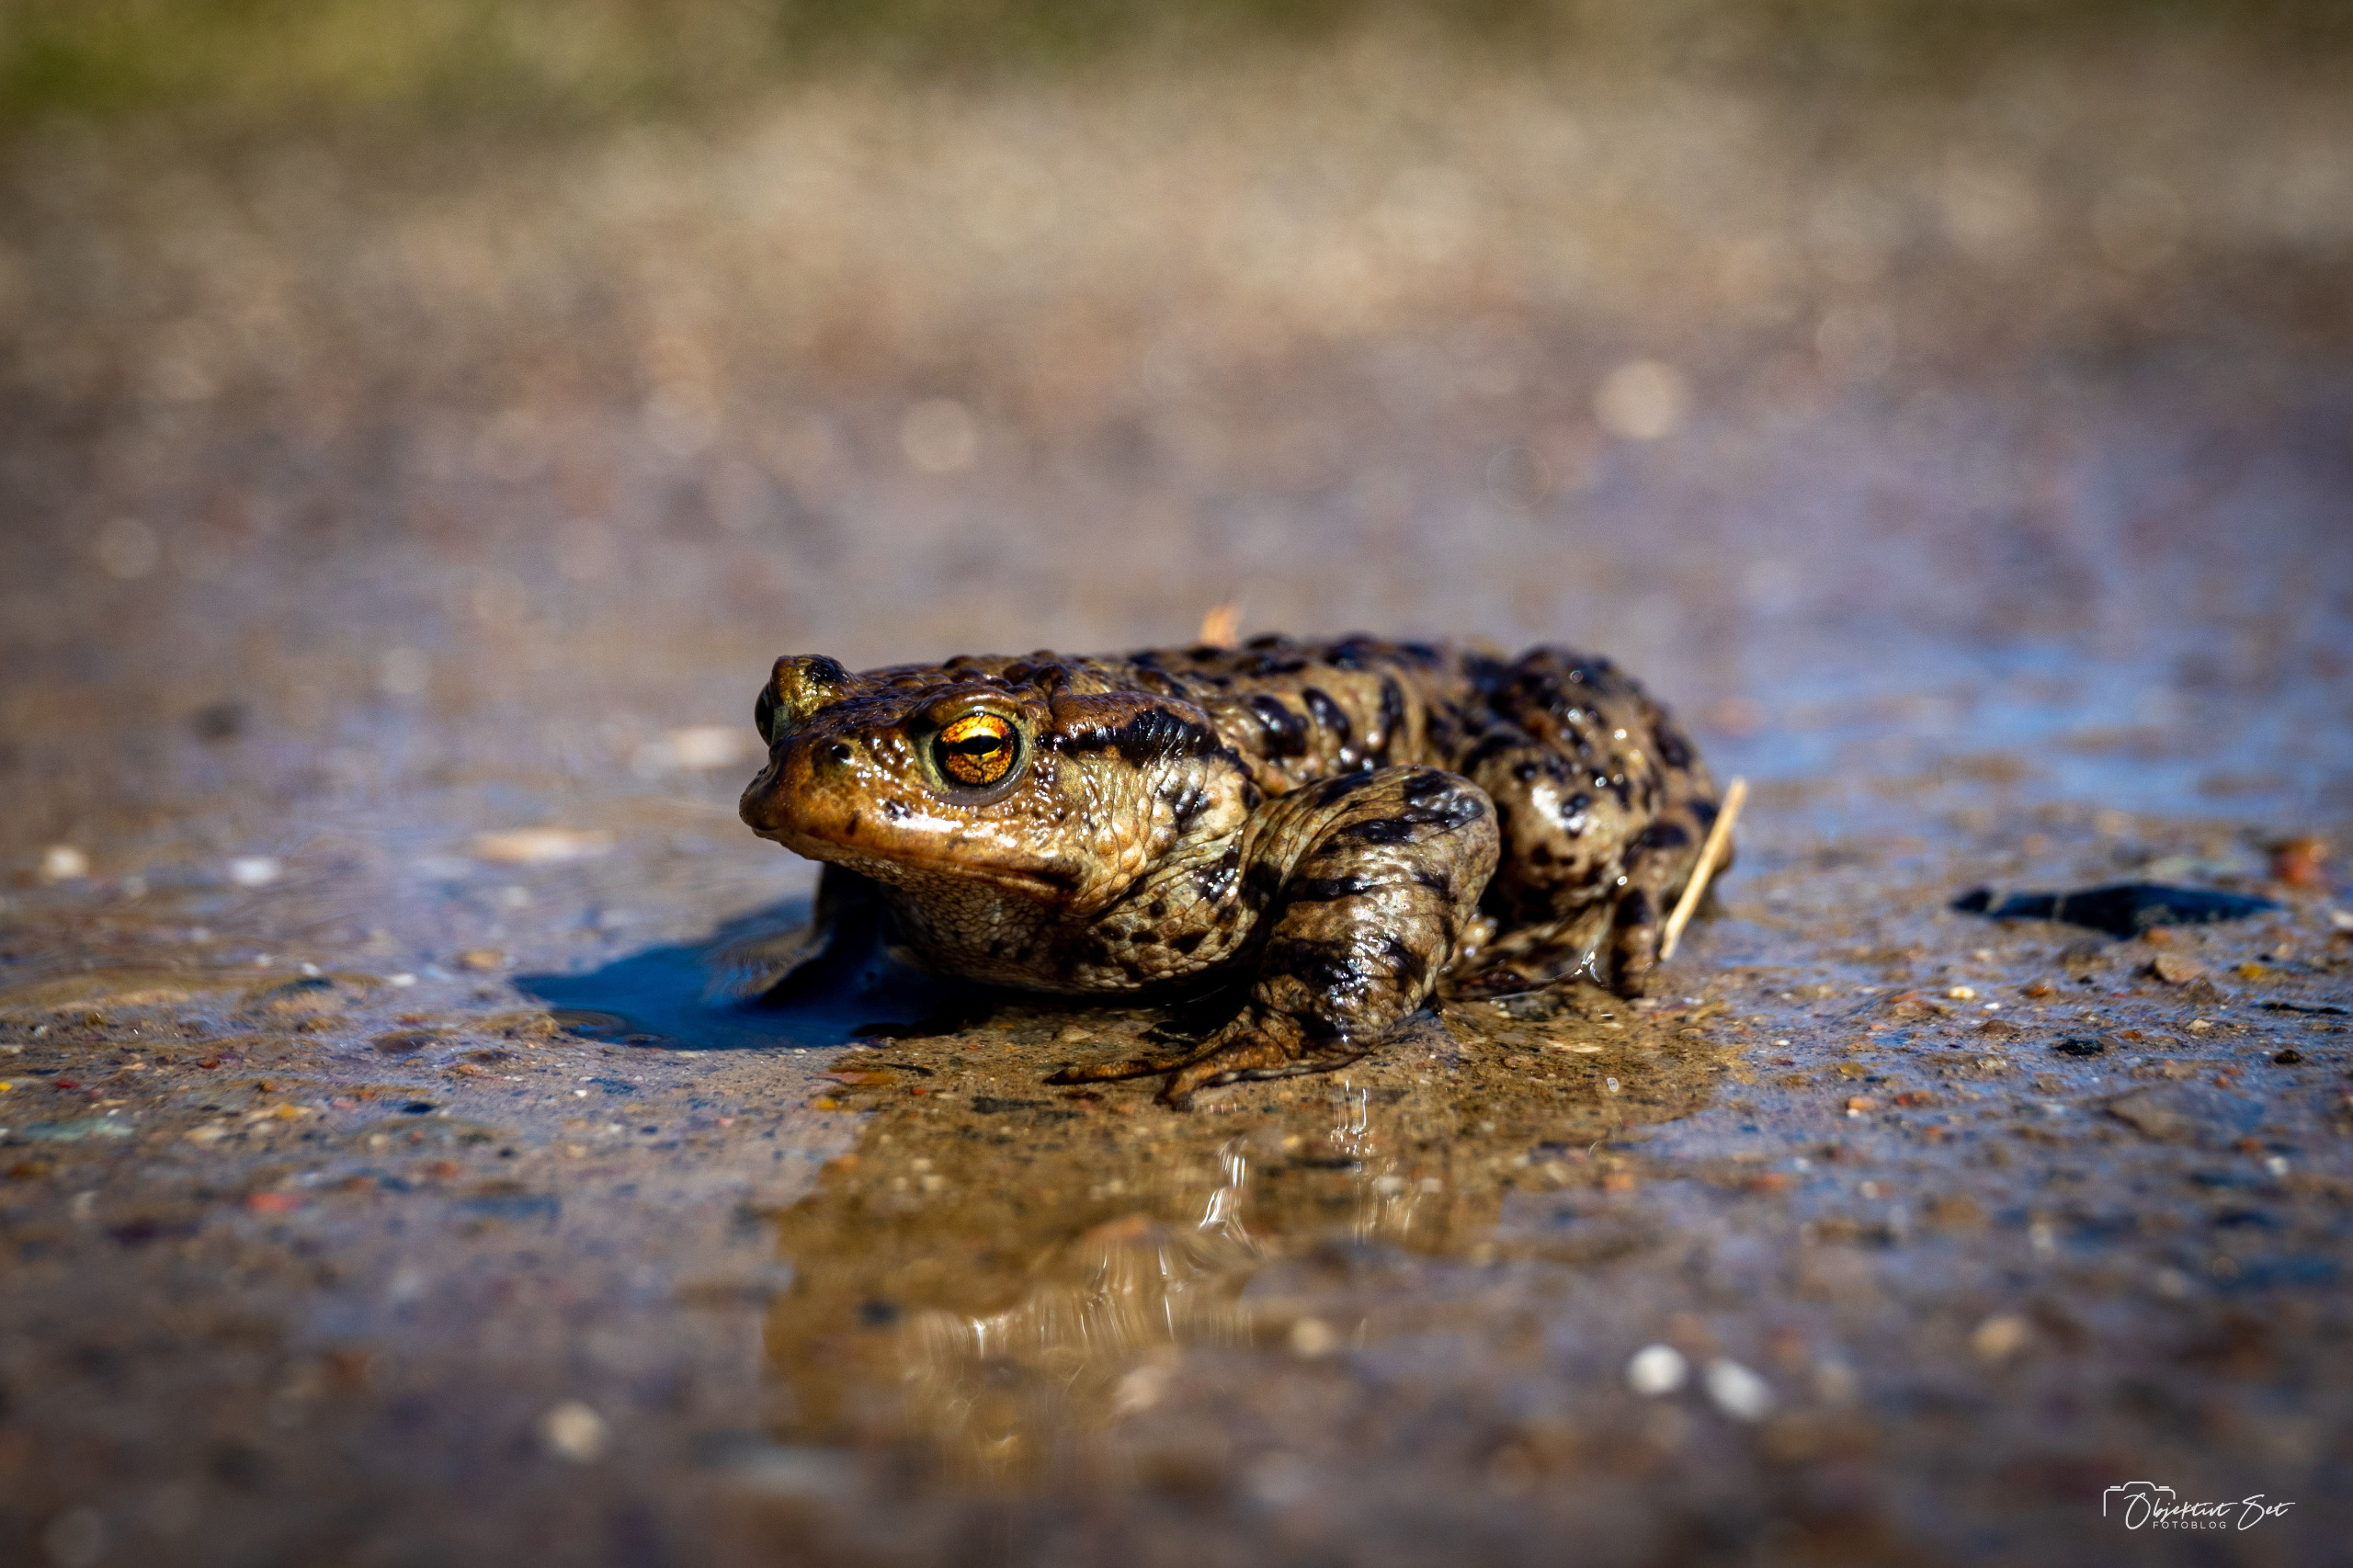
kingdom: Animalia
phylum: Chordata
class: Amphibia
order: Anura
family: Bufonidae
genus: Bufo
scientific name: Bufo bufo
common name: Skrubtudse
